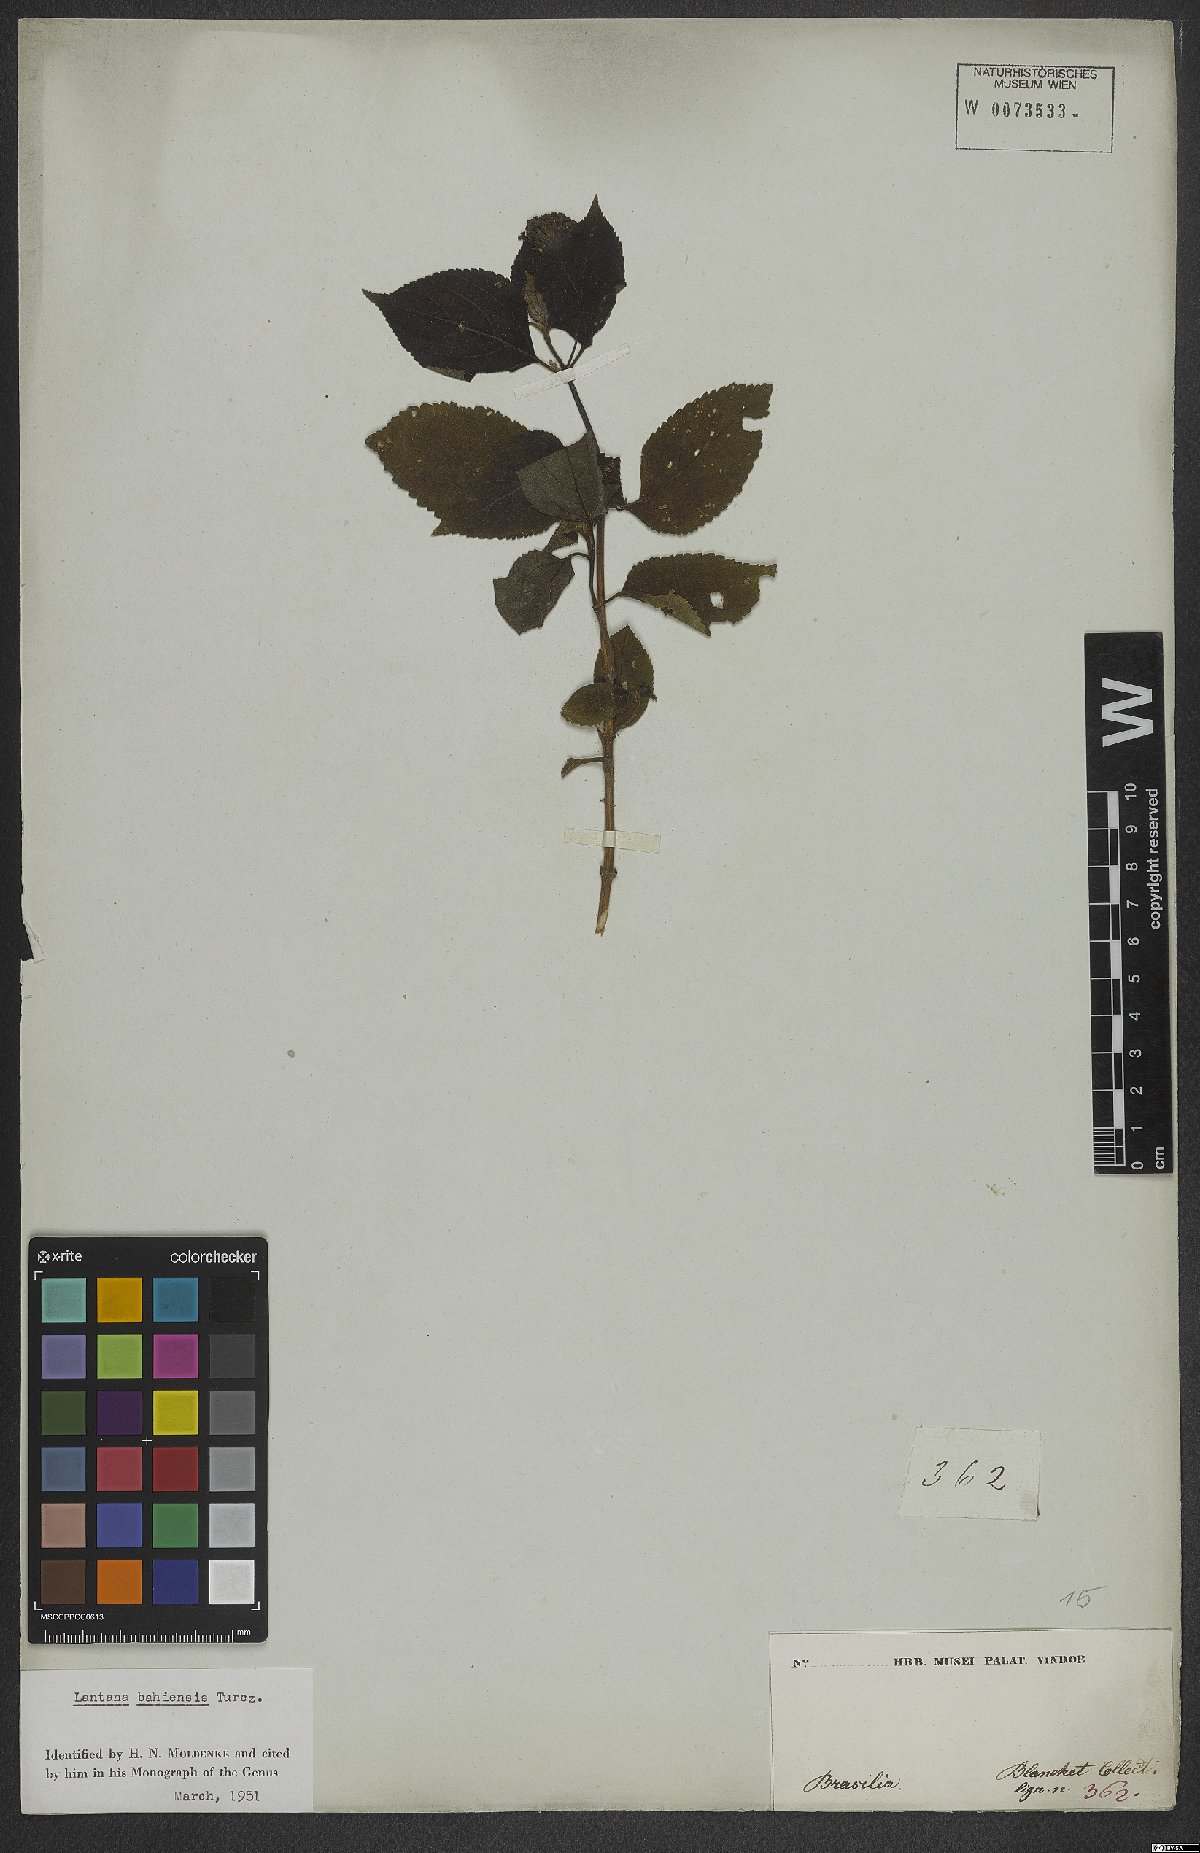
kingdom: Plantae
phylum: Tracheophyta
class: Magnoliopsida
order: Lamiales
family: Verbenaceae
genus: Lantana
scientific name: Lantana mutabilis
